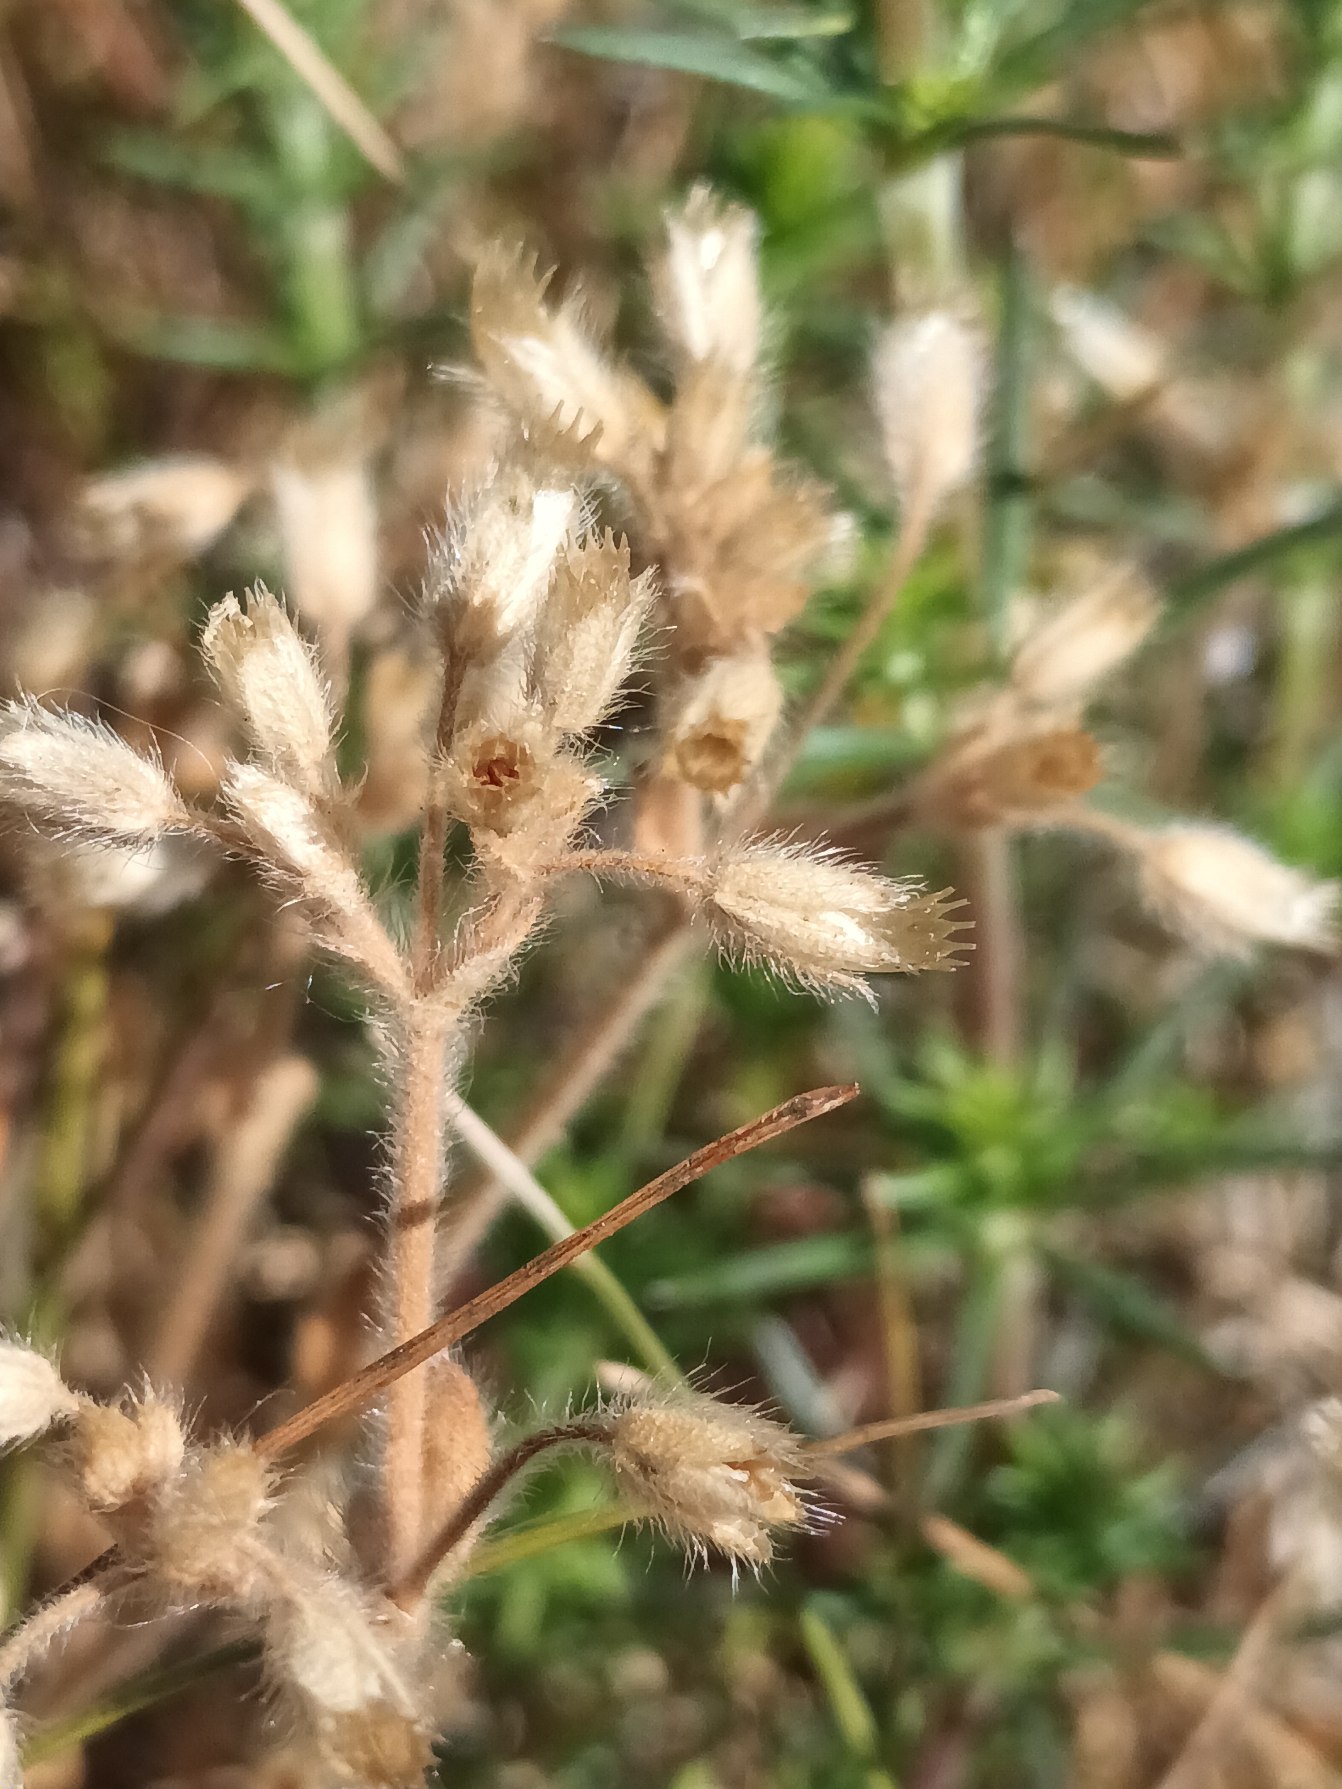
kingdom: Plantae
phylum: Tracheophyta
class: Magnoliopsida
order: Caryophyllales
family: Caryophyllaceae
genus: Cerastium
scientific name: Cerastium brachypetalum
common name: Stivhåret hønsetarm
